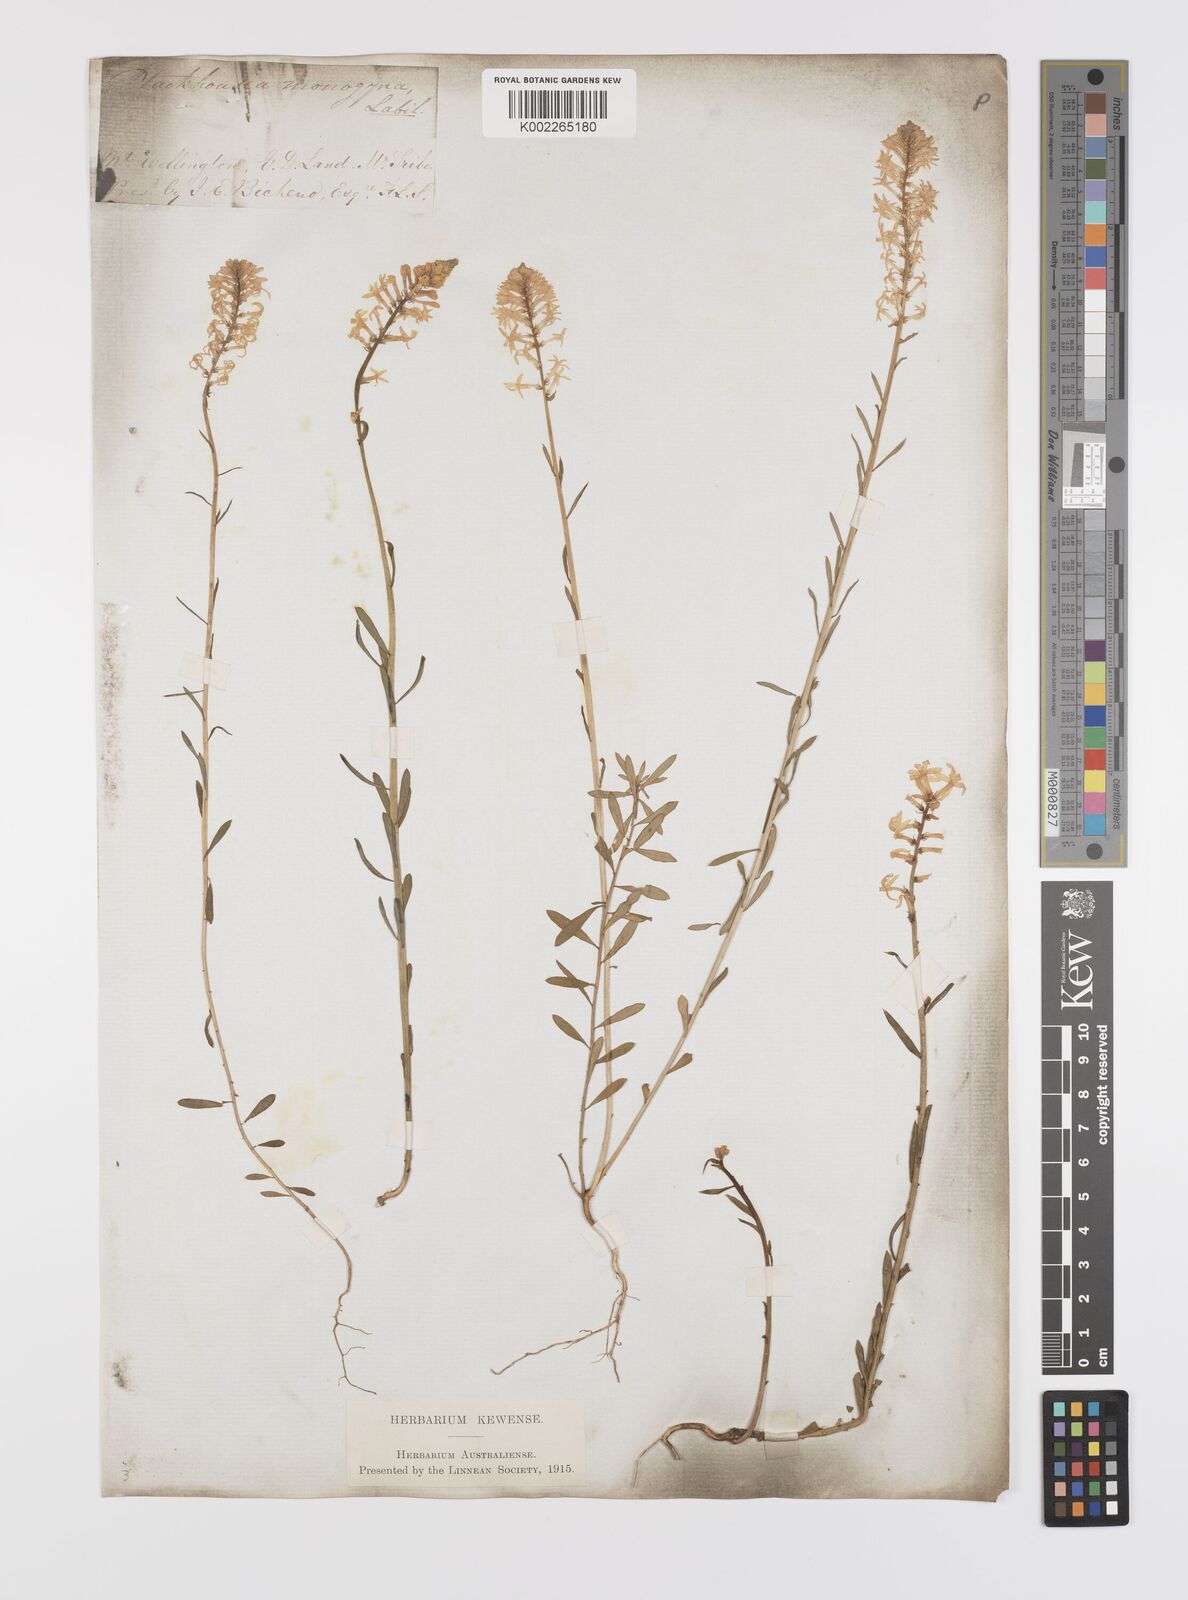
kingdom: Plantae
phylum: Tracheophyta
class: Magnoliopsida
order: Celastrales
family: Celastraceae
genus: Stackhousia
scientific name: Stackhousia monogyna
